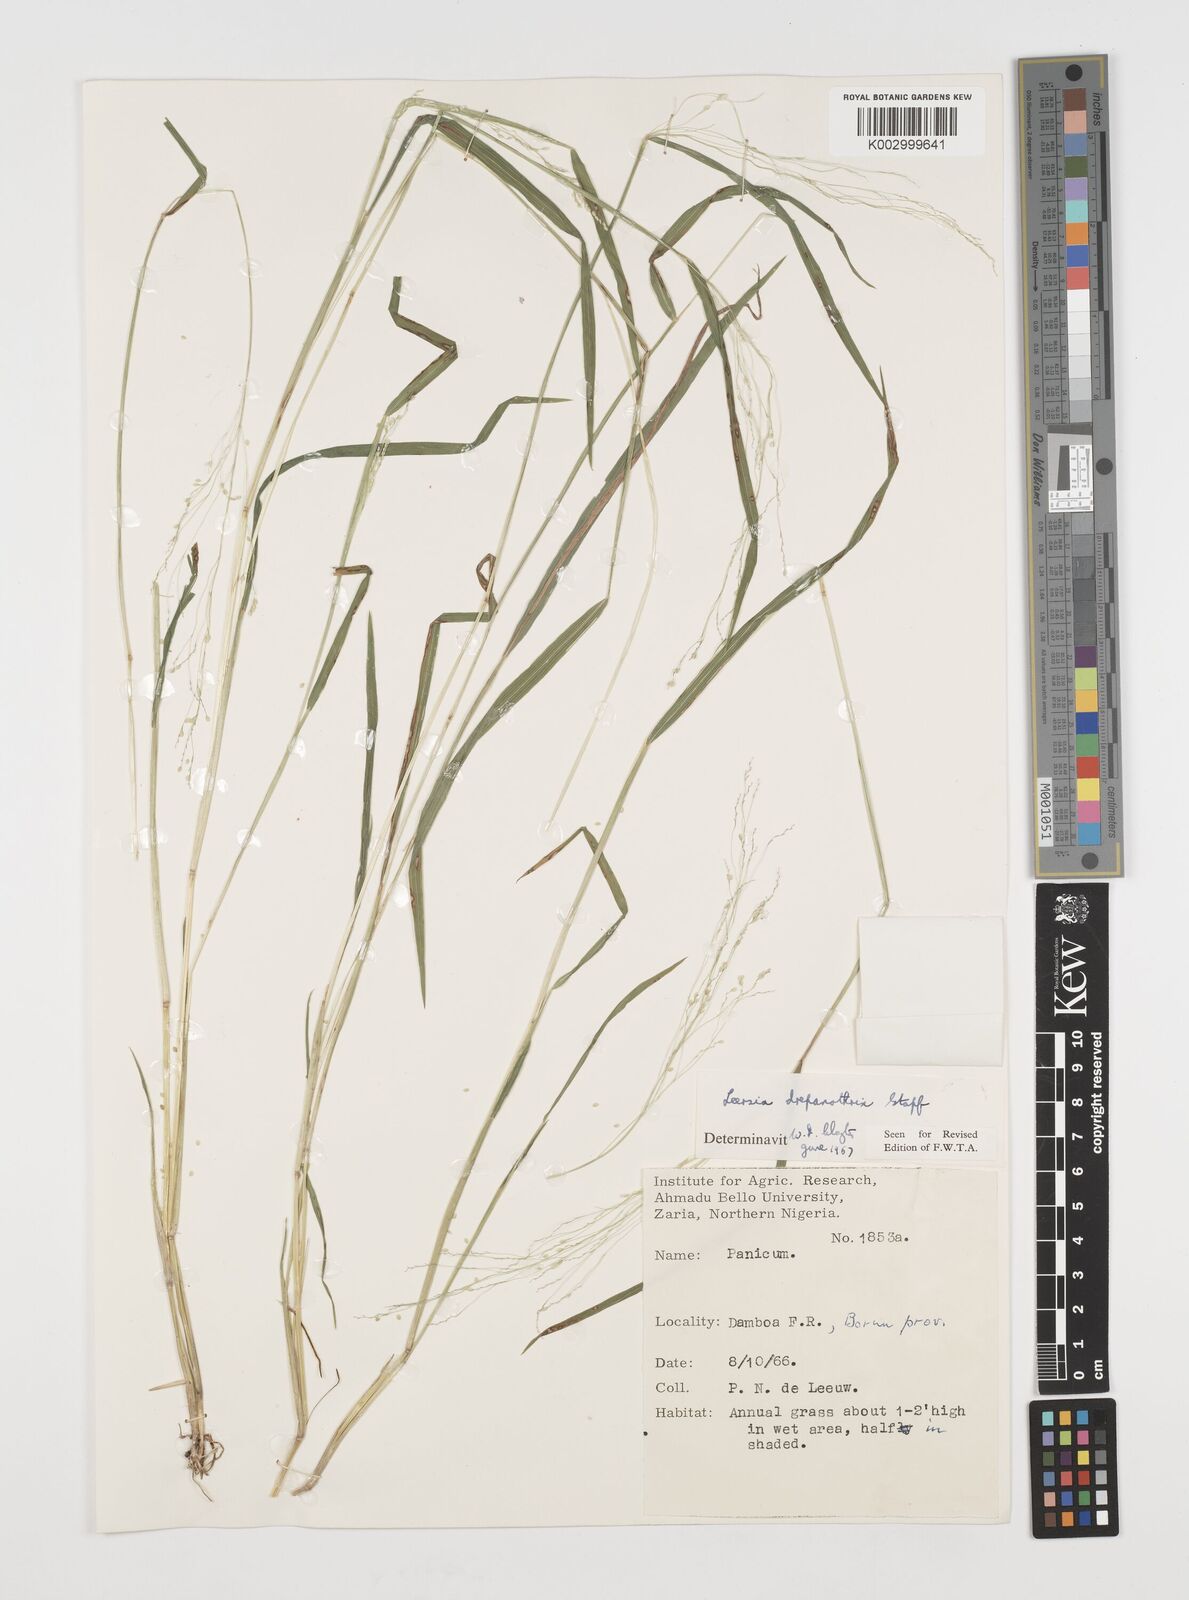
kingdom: Plantae
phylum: Tracheophyta
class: Liliopsida
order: Poales
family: Poaceae
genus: Leersia
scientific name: Leersia drepanothrix
